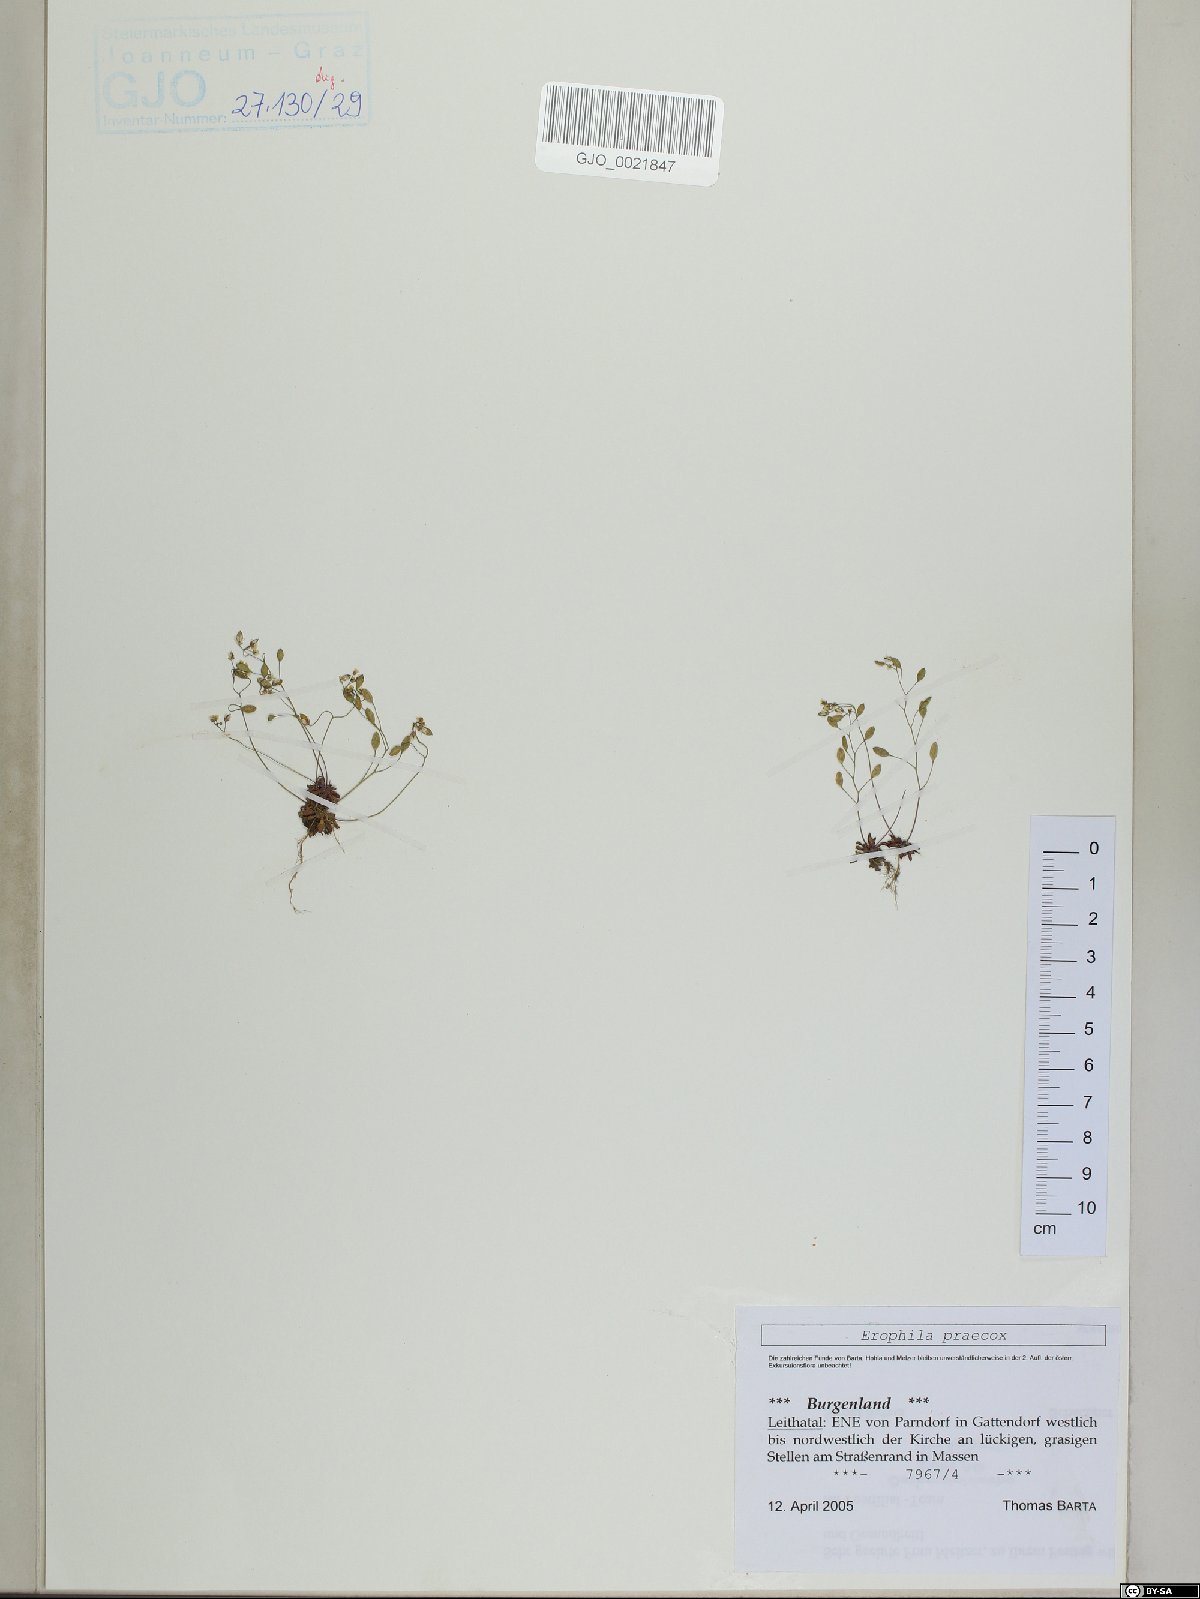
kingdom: Plantae
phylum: Tracheophyta
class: Magnoliopsida
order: Brassicales
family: Brassicaceae
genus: Draba
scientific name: Draba verna
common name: Spring draba
